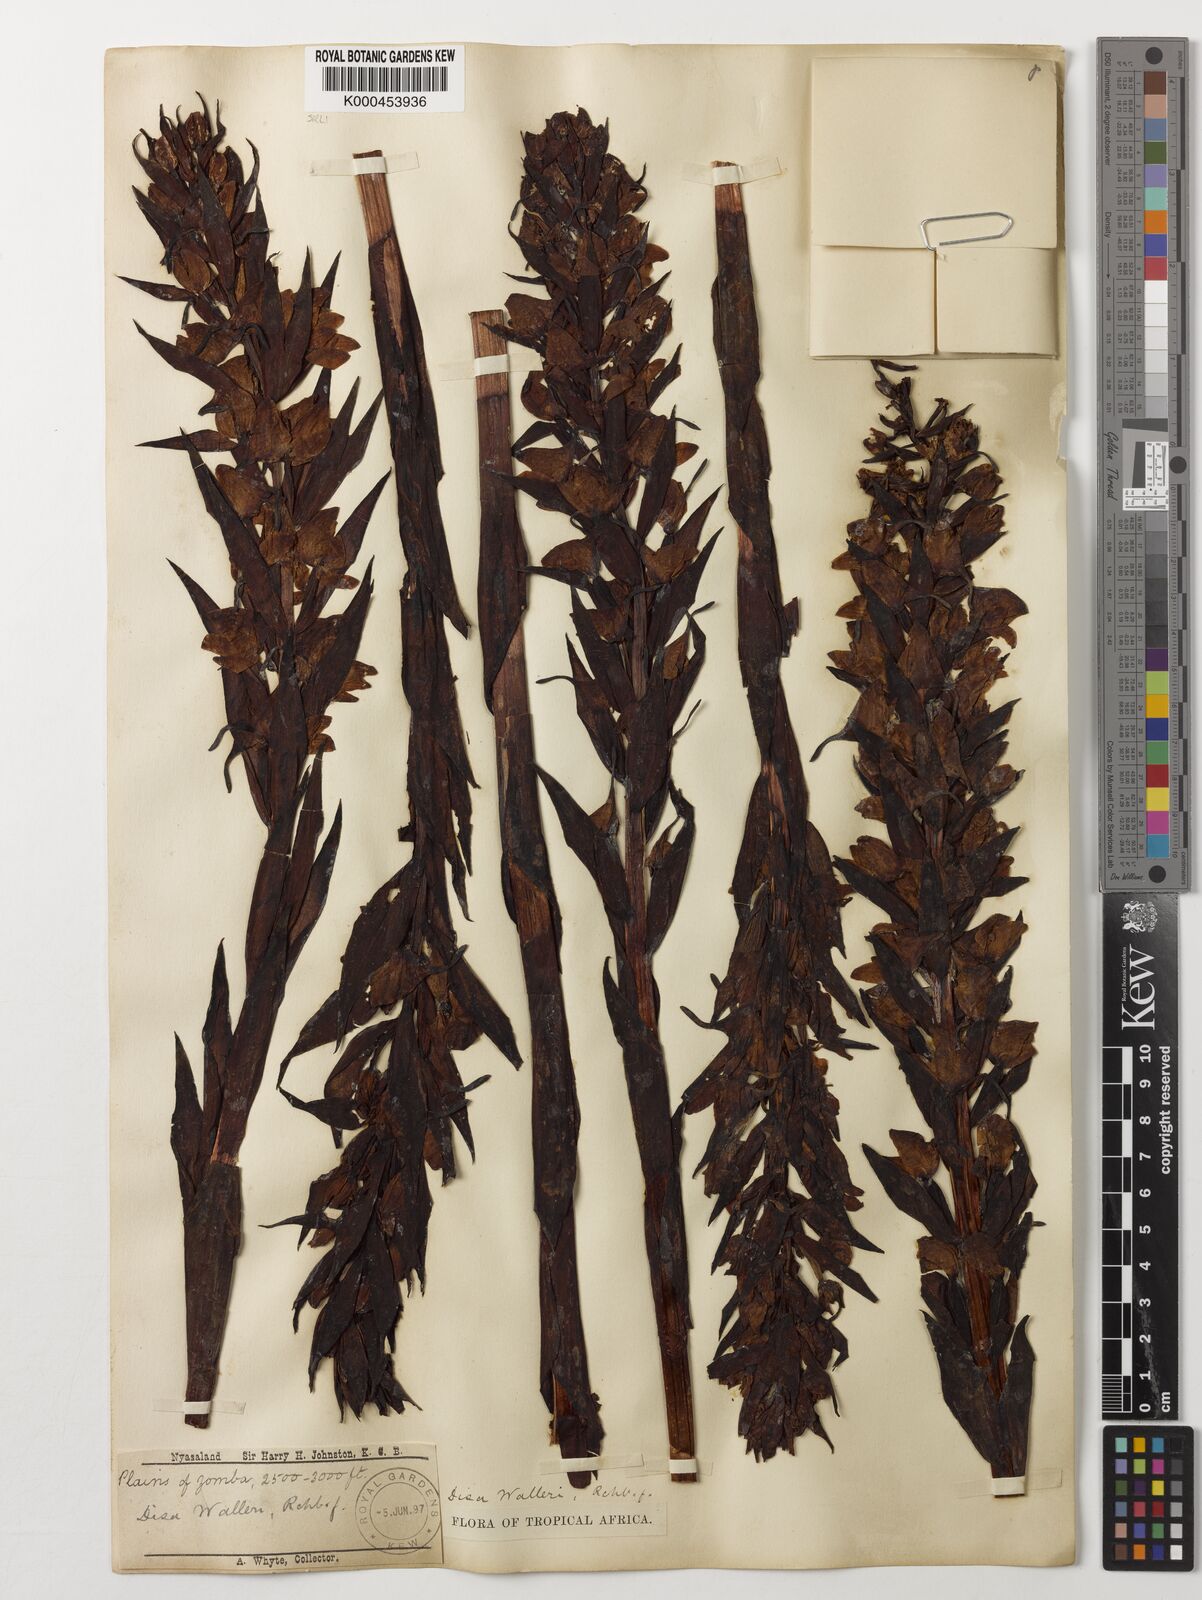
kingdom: Plantae
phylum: Tracheophyta
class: Liliopsida
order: Asparagales
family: Orchidaceae
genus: Disa
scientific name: Disa walleri
